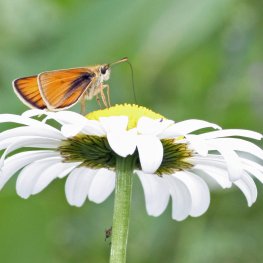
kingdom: Animalia
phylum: Arthropoda
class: Insecta
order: Lepidoptera
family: Hesperiidae
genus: Thymelicus
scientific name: Thymelicus lineola
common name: European Skipper
